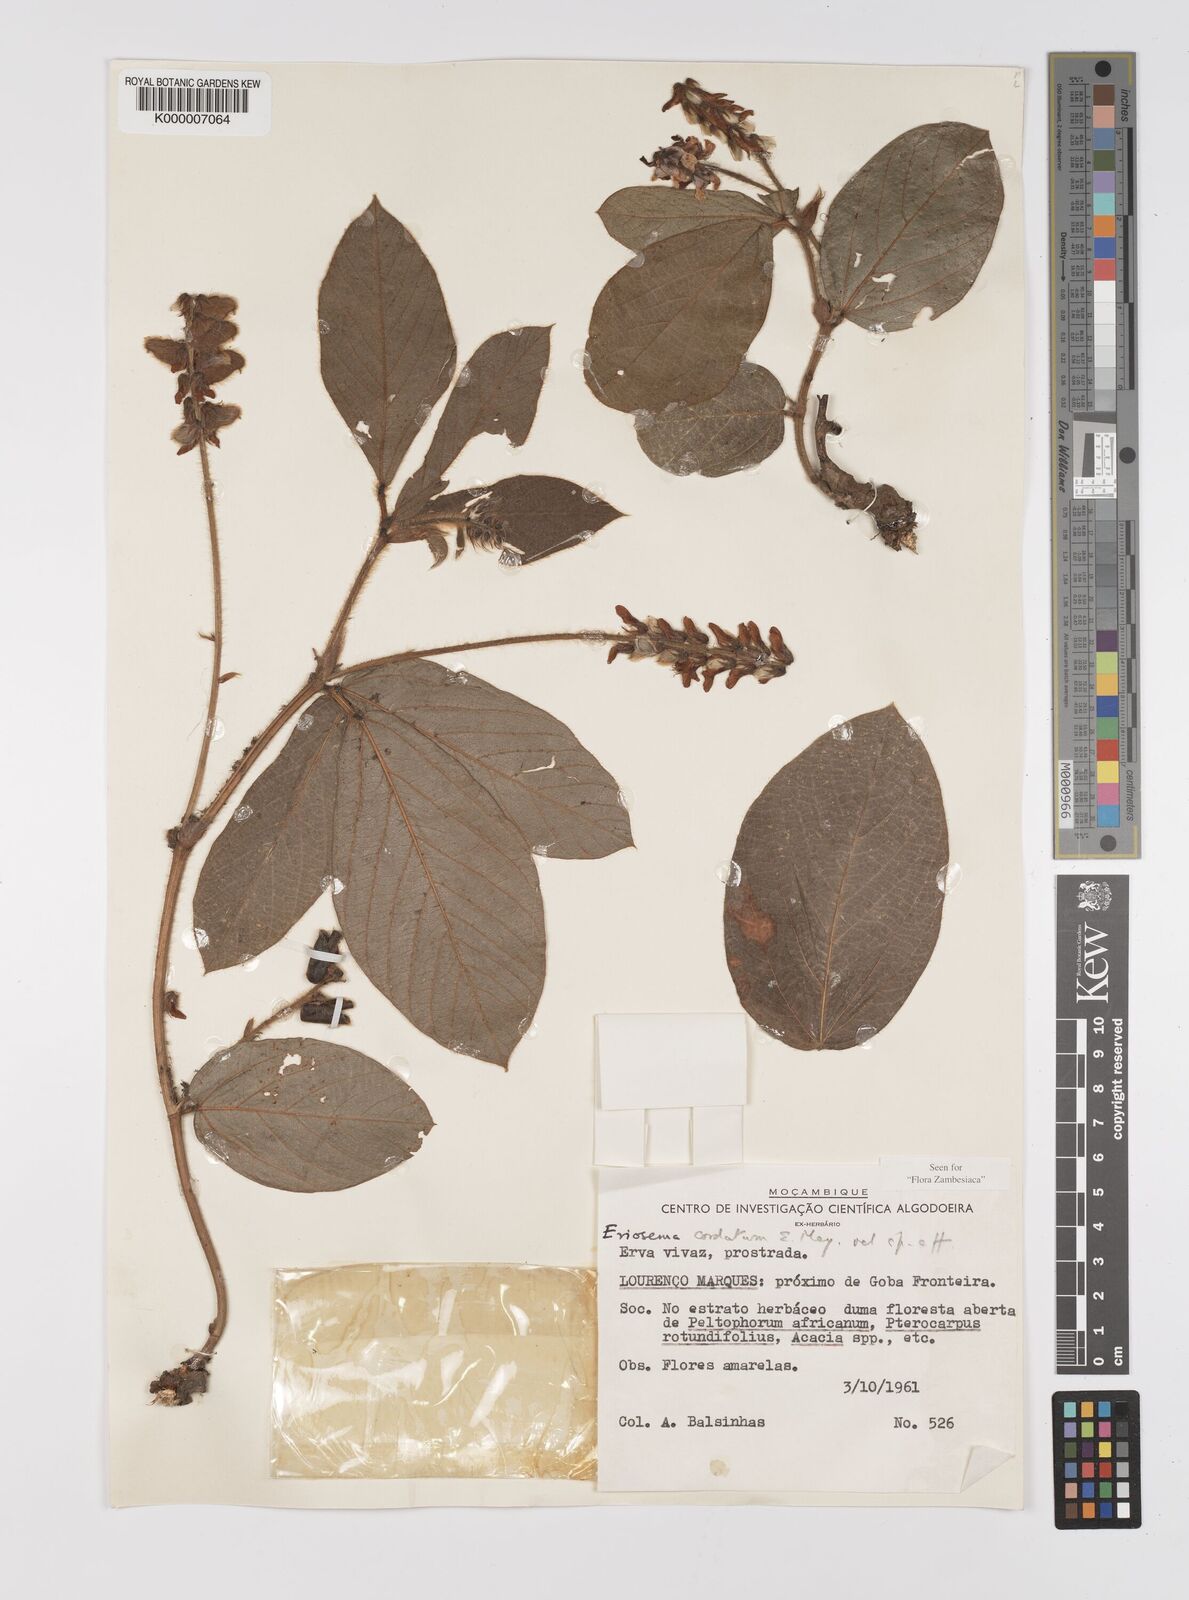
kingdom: Plantae
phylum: Tracheophyta
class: Magnoliopsida
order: Fabales
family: Fabaceae
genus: Eriosema
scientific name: Eriosema cordatum
